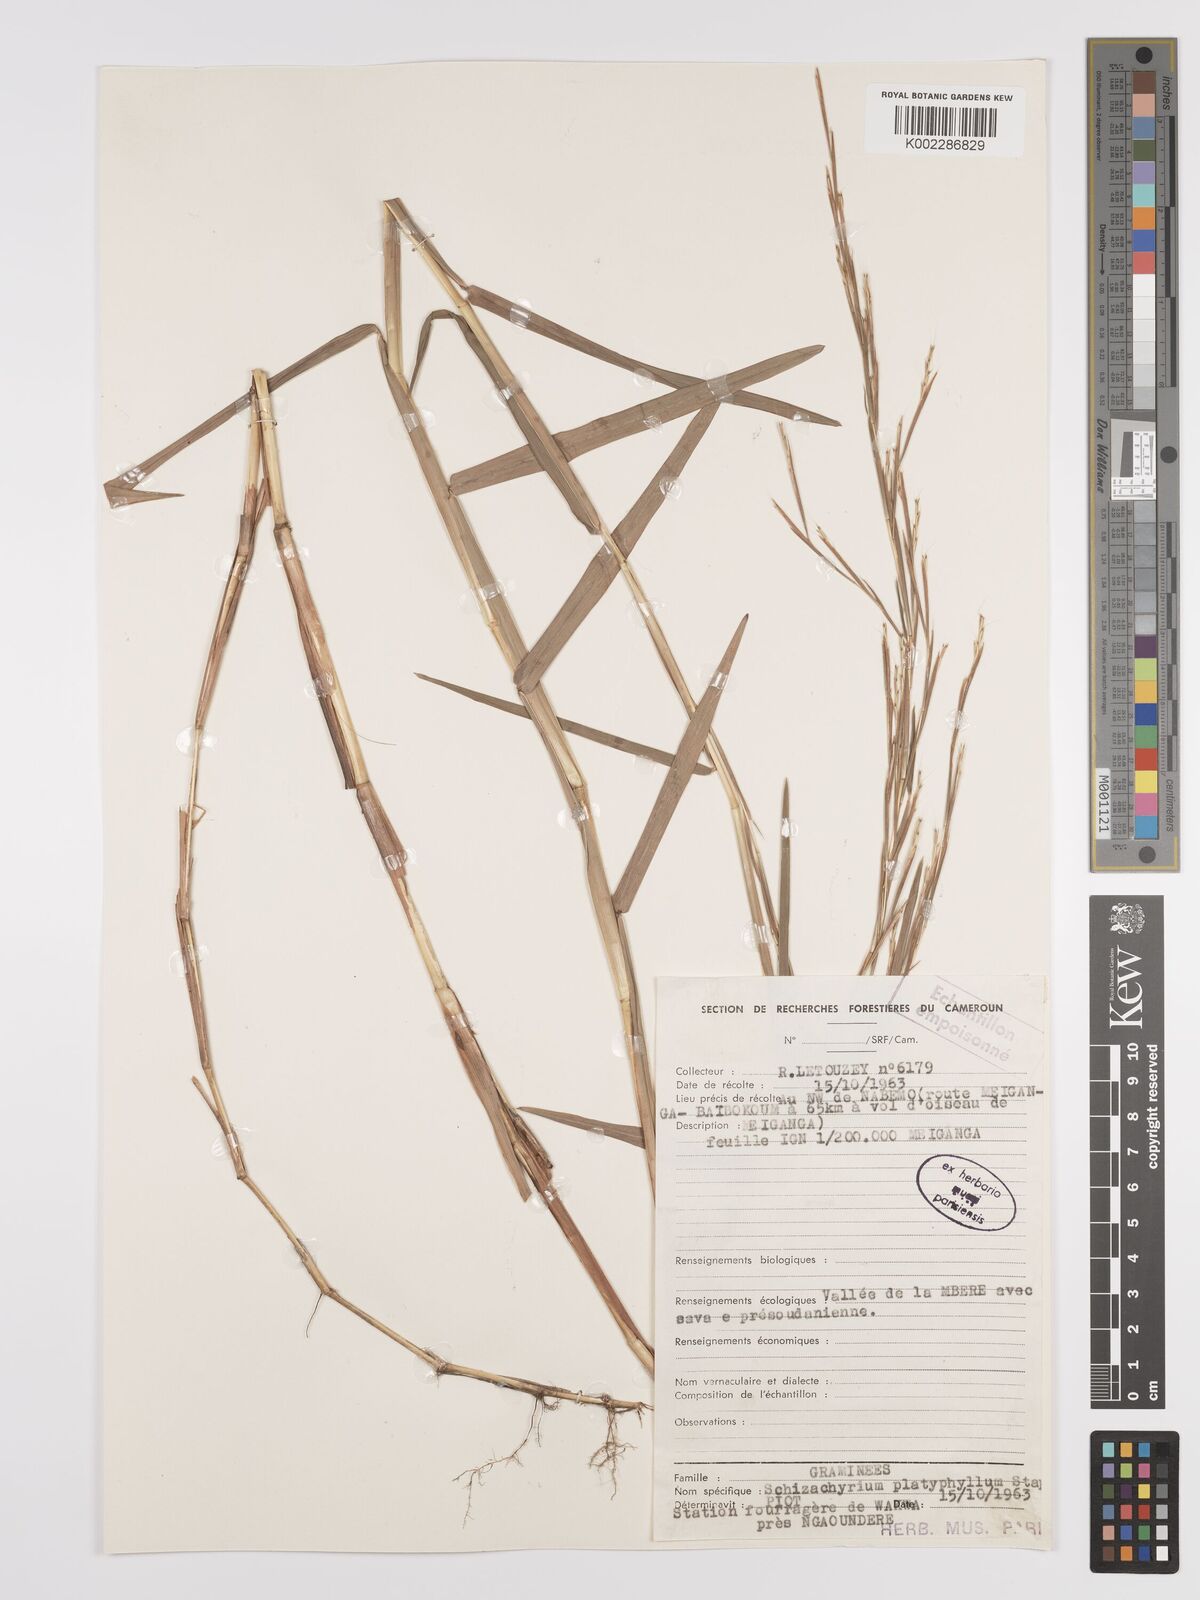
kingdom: Plantae
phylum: Tracheophyta
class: Liliopsida
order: Poales
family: Poaceae
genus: Schizachyrium
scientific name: Schizachyrium platyphyllum
